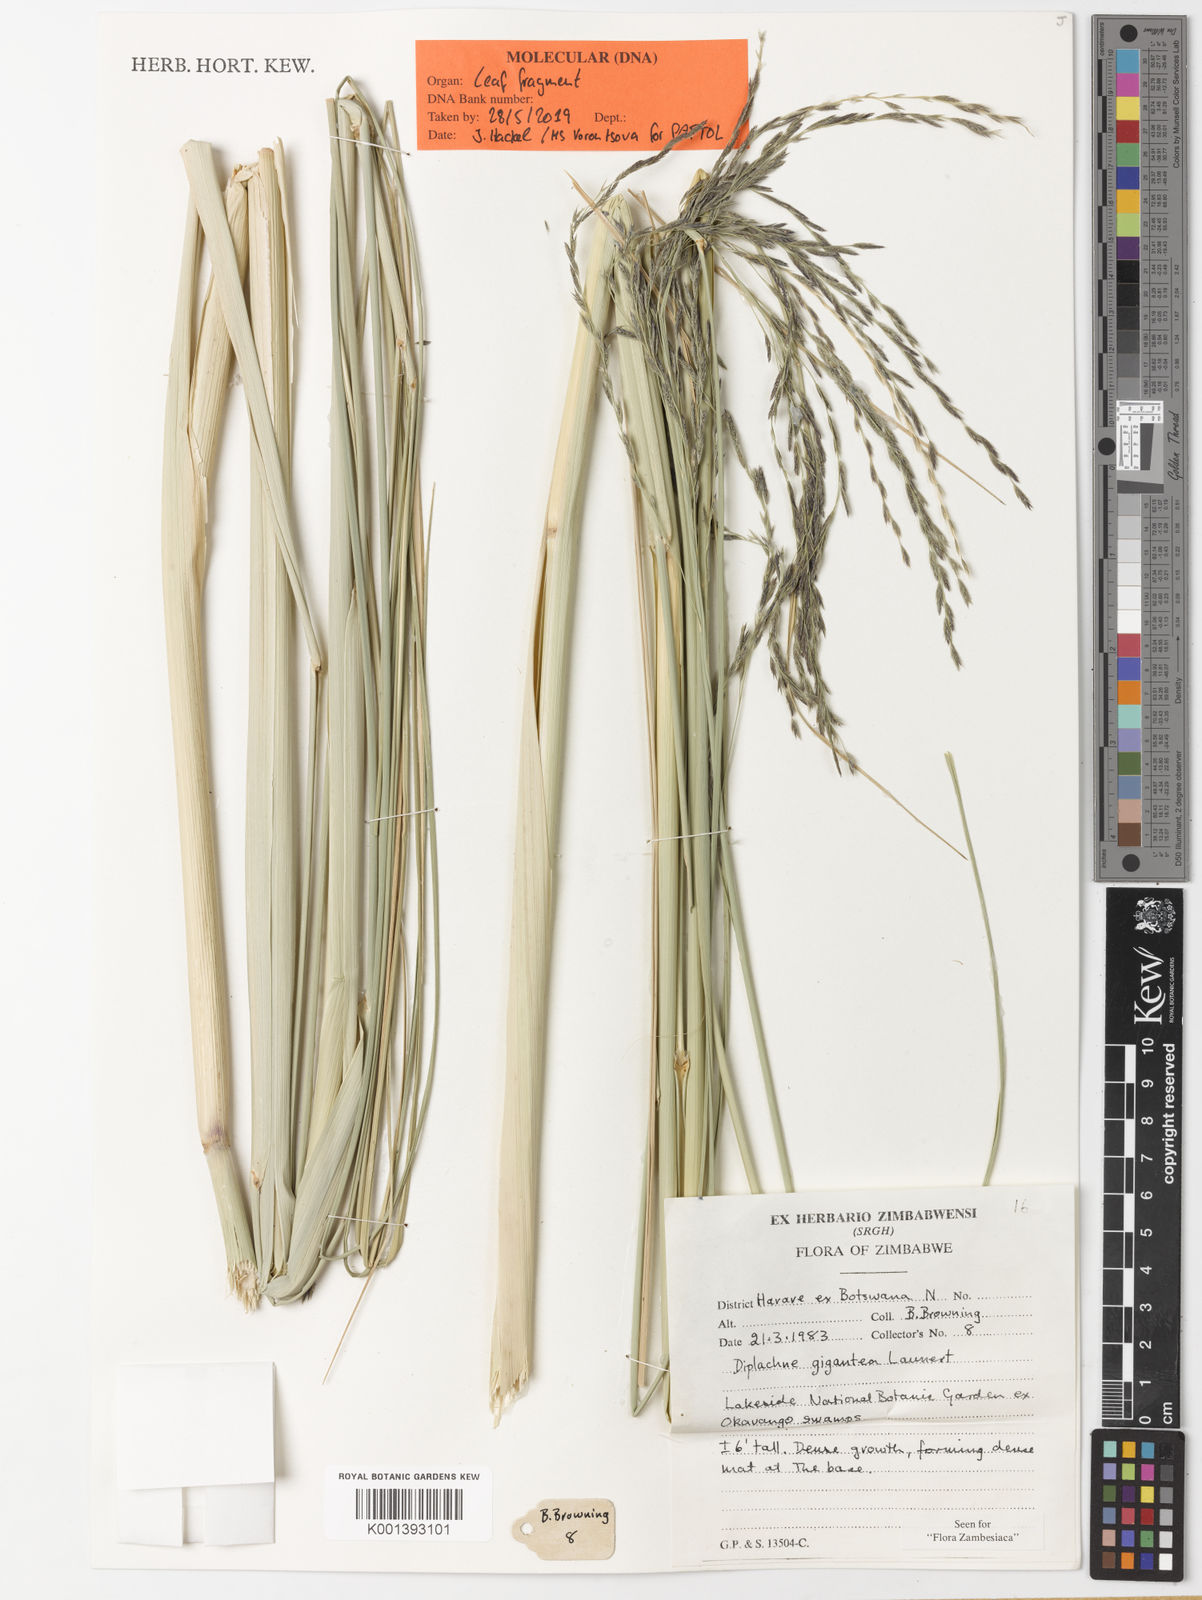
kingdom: Plantae
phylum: Tracheophyta
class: Liliopsida
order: Poales
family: Poaceae
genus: Diplachne
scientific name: Diplachne gigantea
